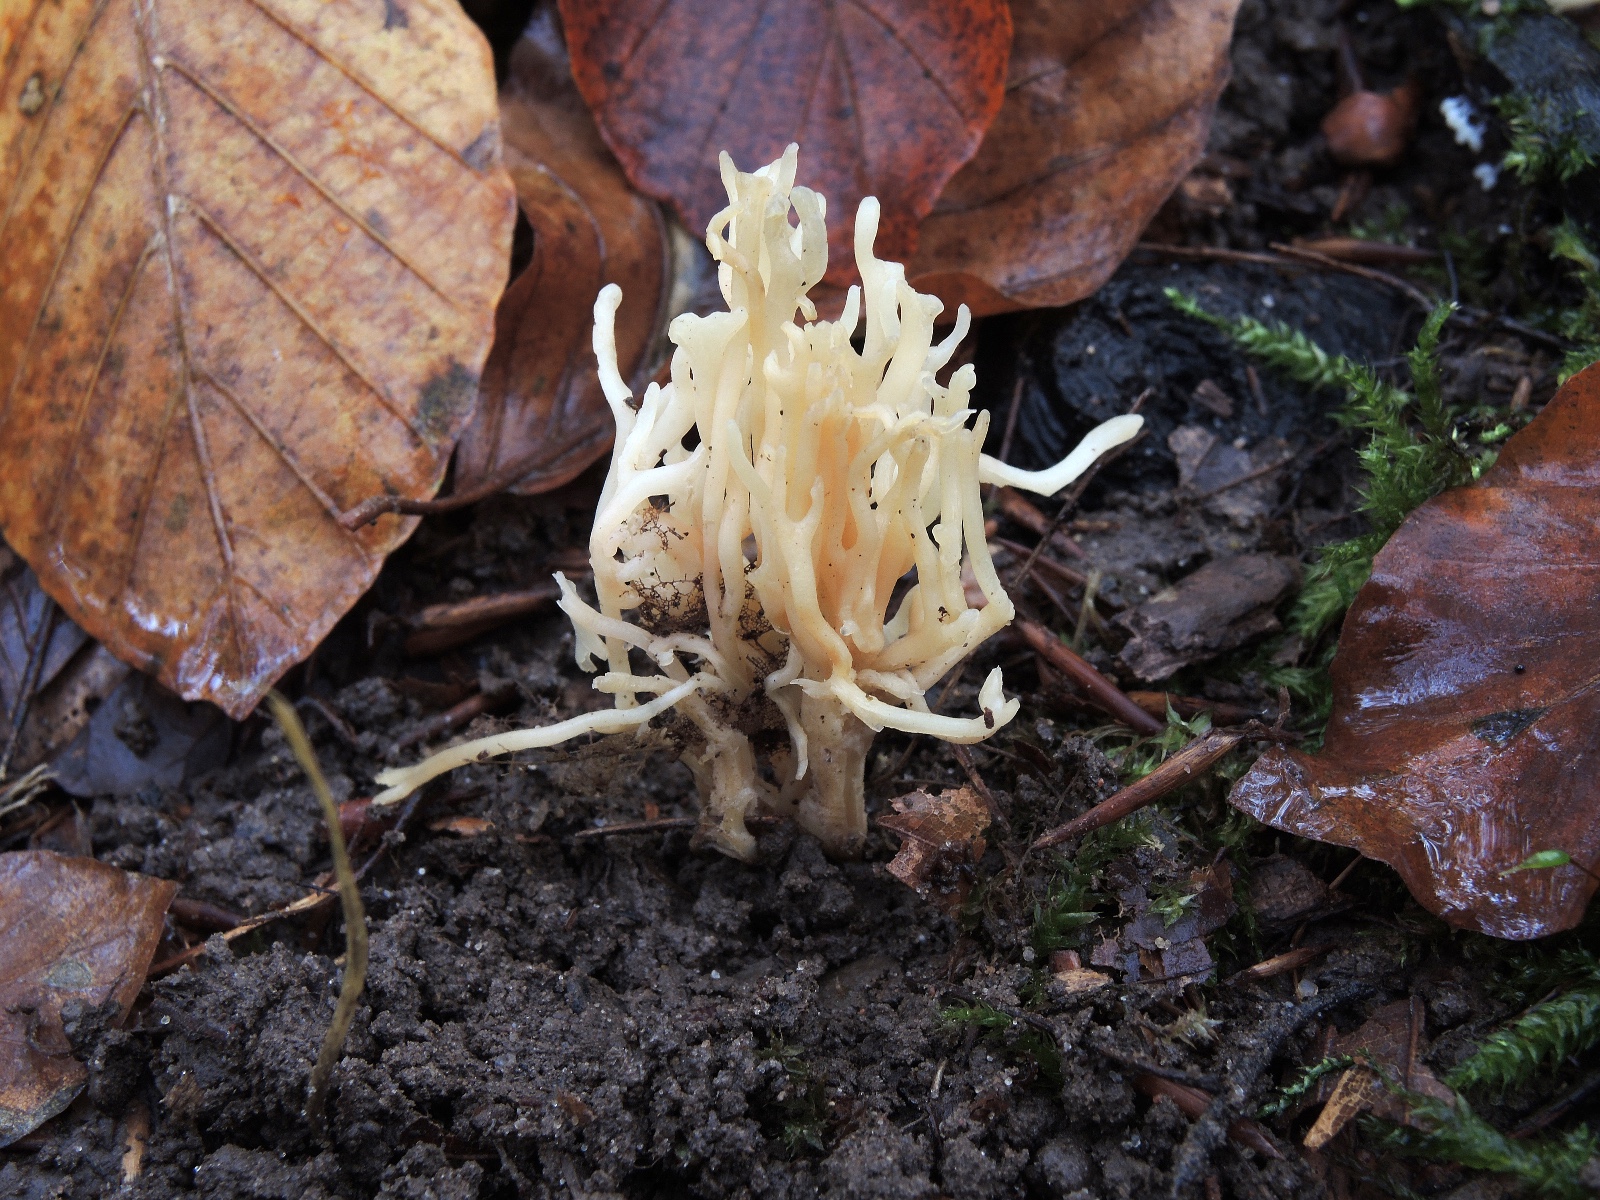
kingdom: Fungi
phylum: Basidiomycota
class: Agaricomycetes
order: Agaricales
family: Clavariaceae
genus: Ramariopsis
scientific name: Ramariopsis kunzei
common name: mangegrenet køllesvamp
